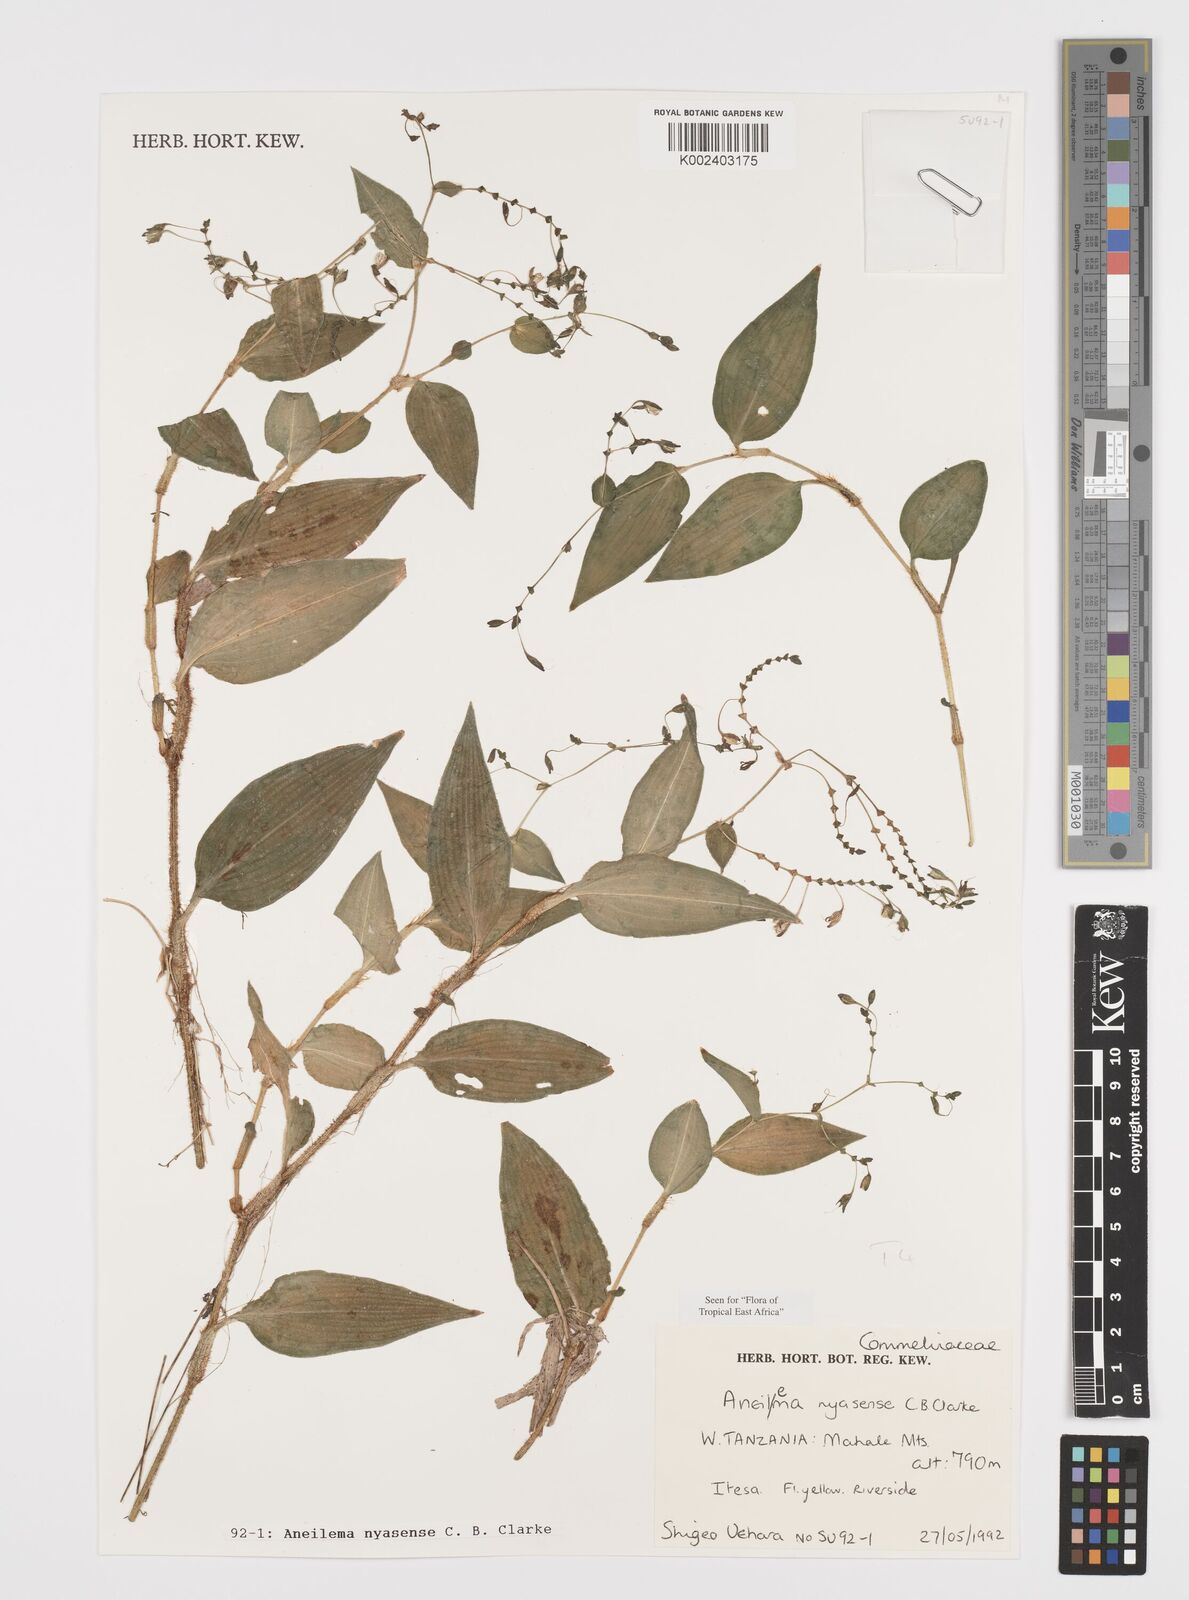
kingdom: Plantae
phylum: Tracheophyta
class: Liliopsida
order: Commelinales
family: Commelinaceae
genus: Aneilema
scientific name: Aneilema nyasense
